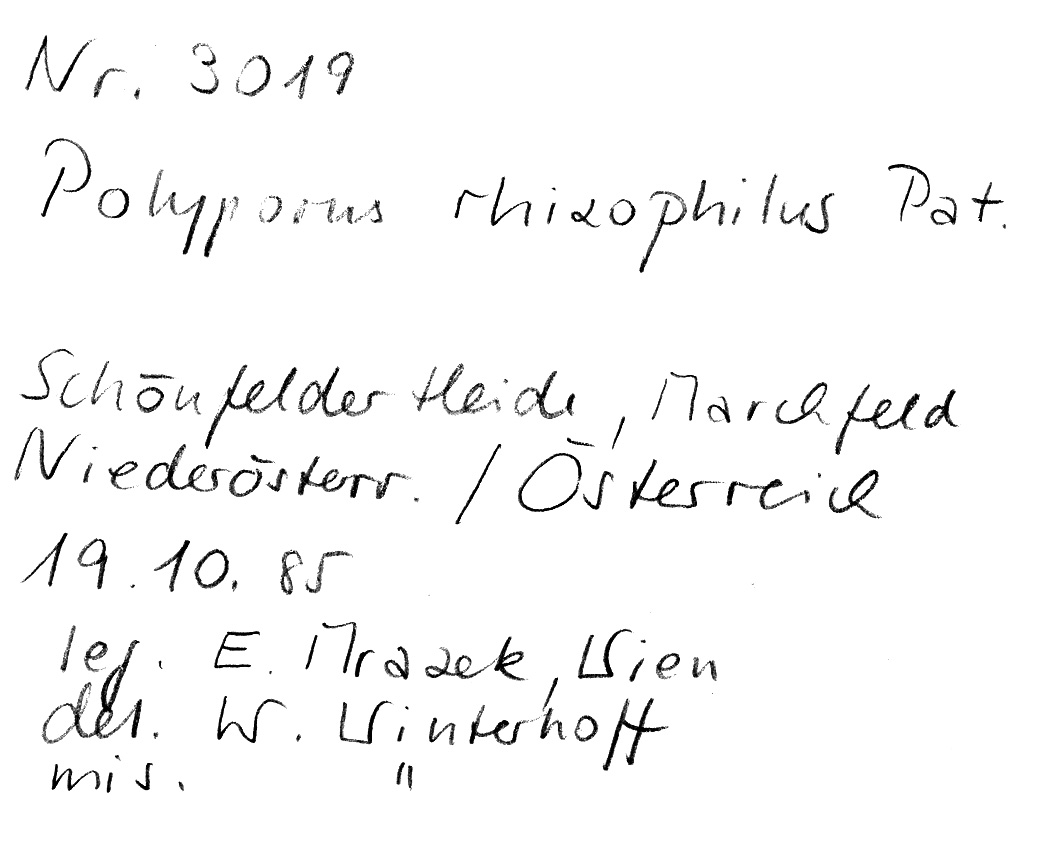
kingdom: Fungi
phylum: Basidiomycota
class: Agaricomycetes
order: Polyporales
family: Polyporaceae
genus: Polyporus
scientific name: Polyporus rhizophilus
